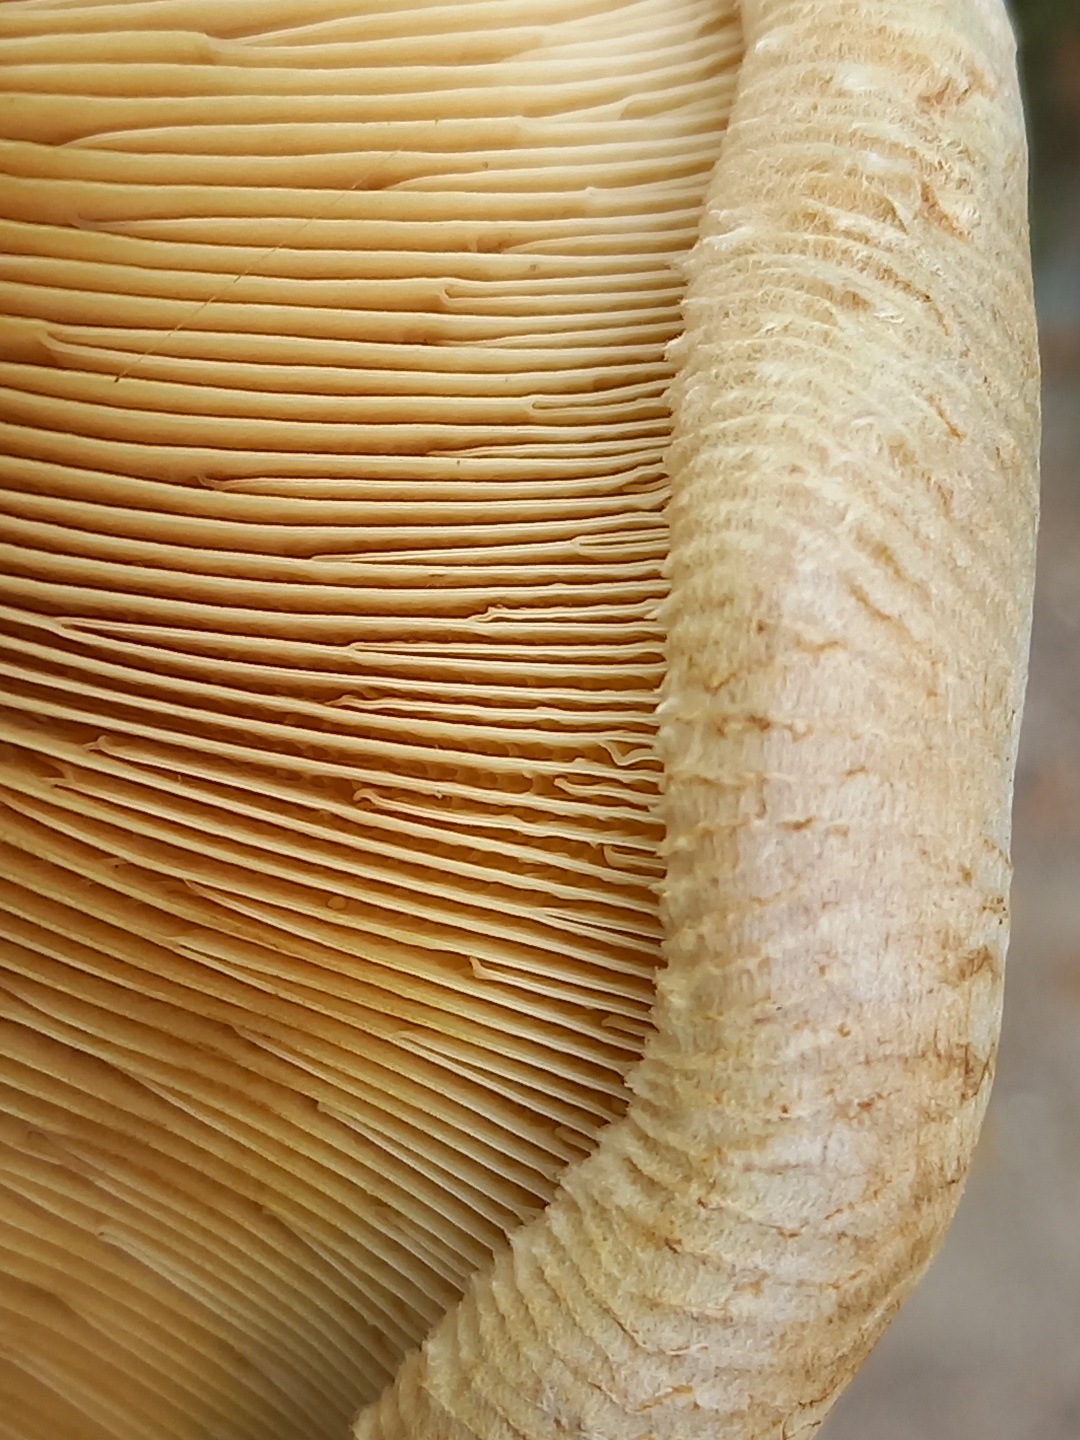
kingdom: Fungi
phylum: Basidiomycota
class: Agaricomycetes
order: Boletales
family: Paxillaceae
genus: Paxillus
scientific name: Paxillus ammoniavirescens
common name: olivensporet netbladhat
